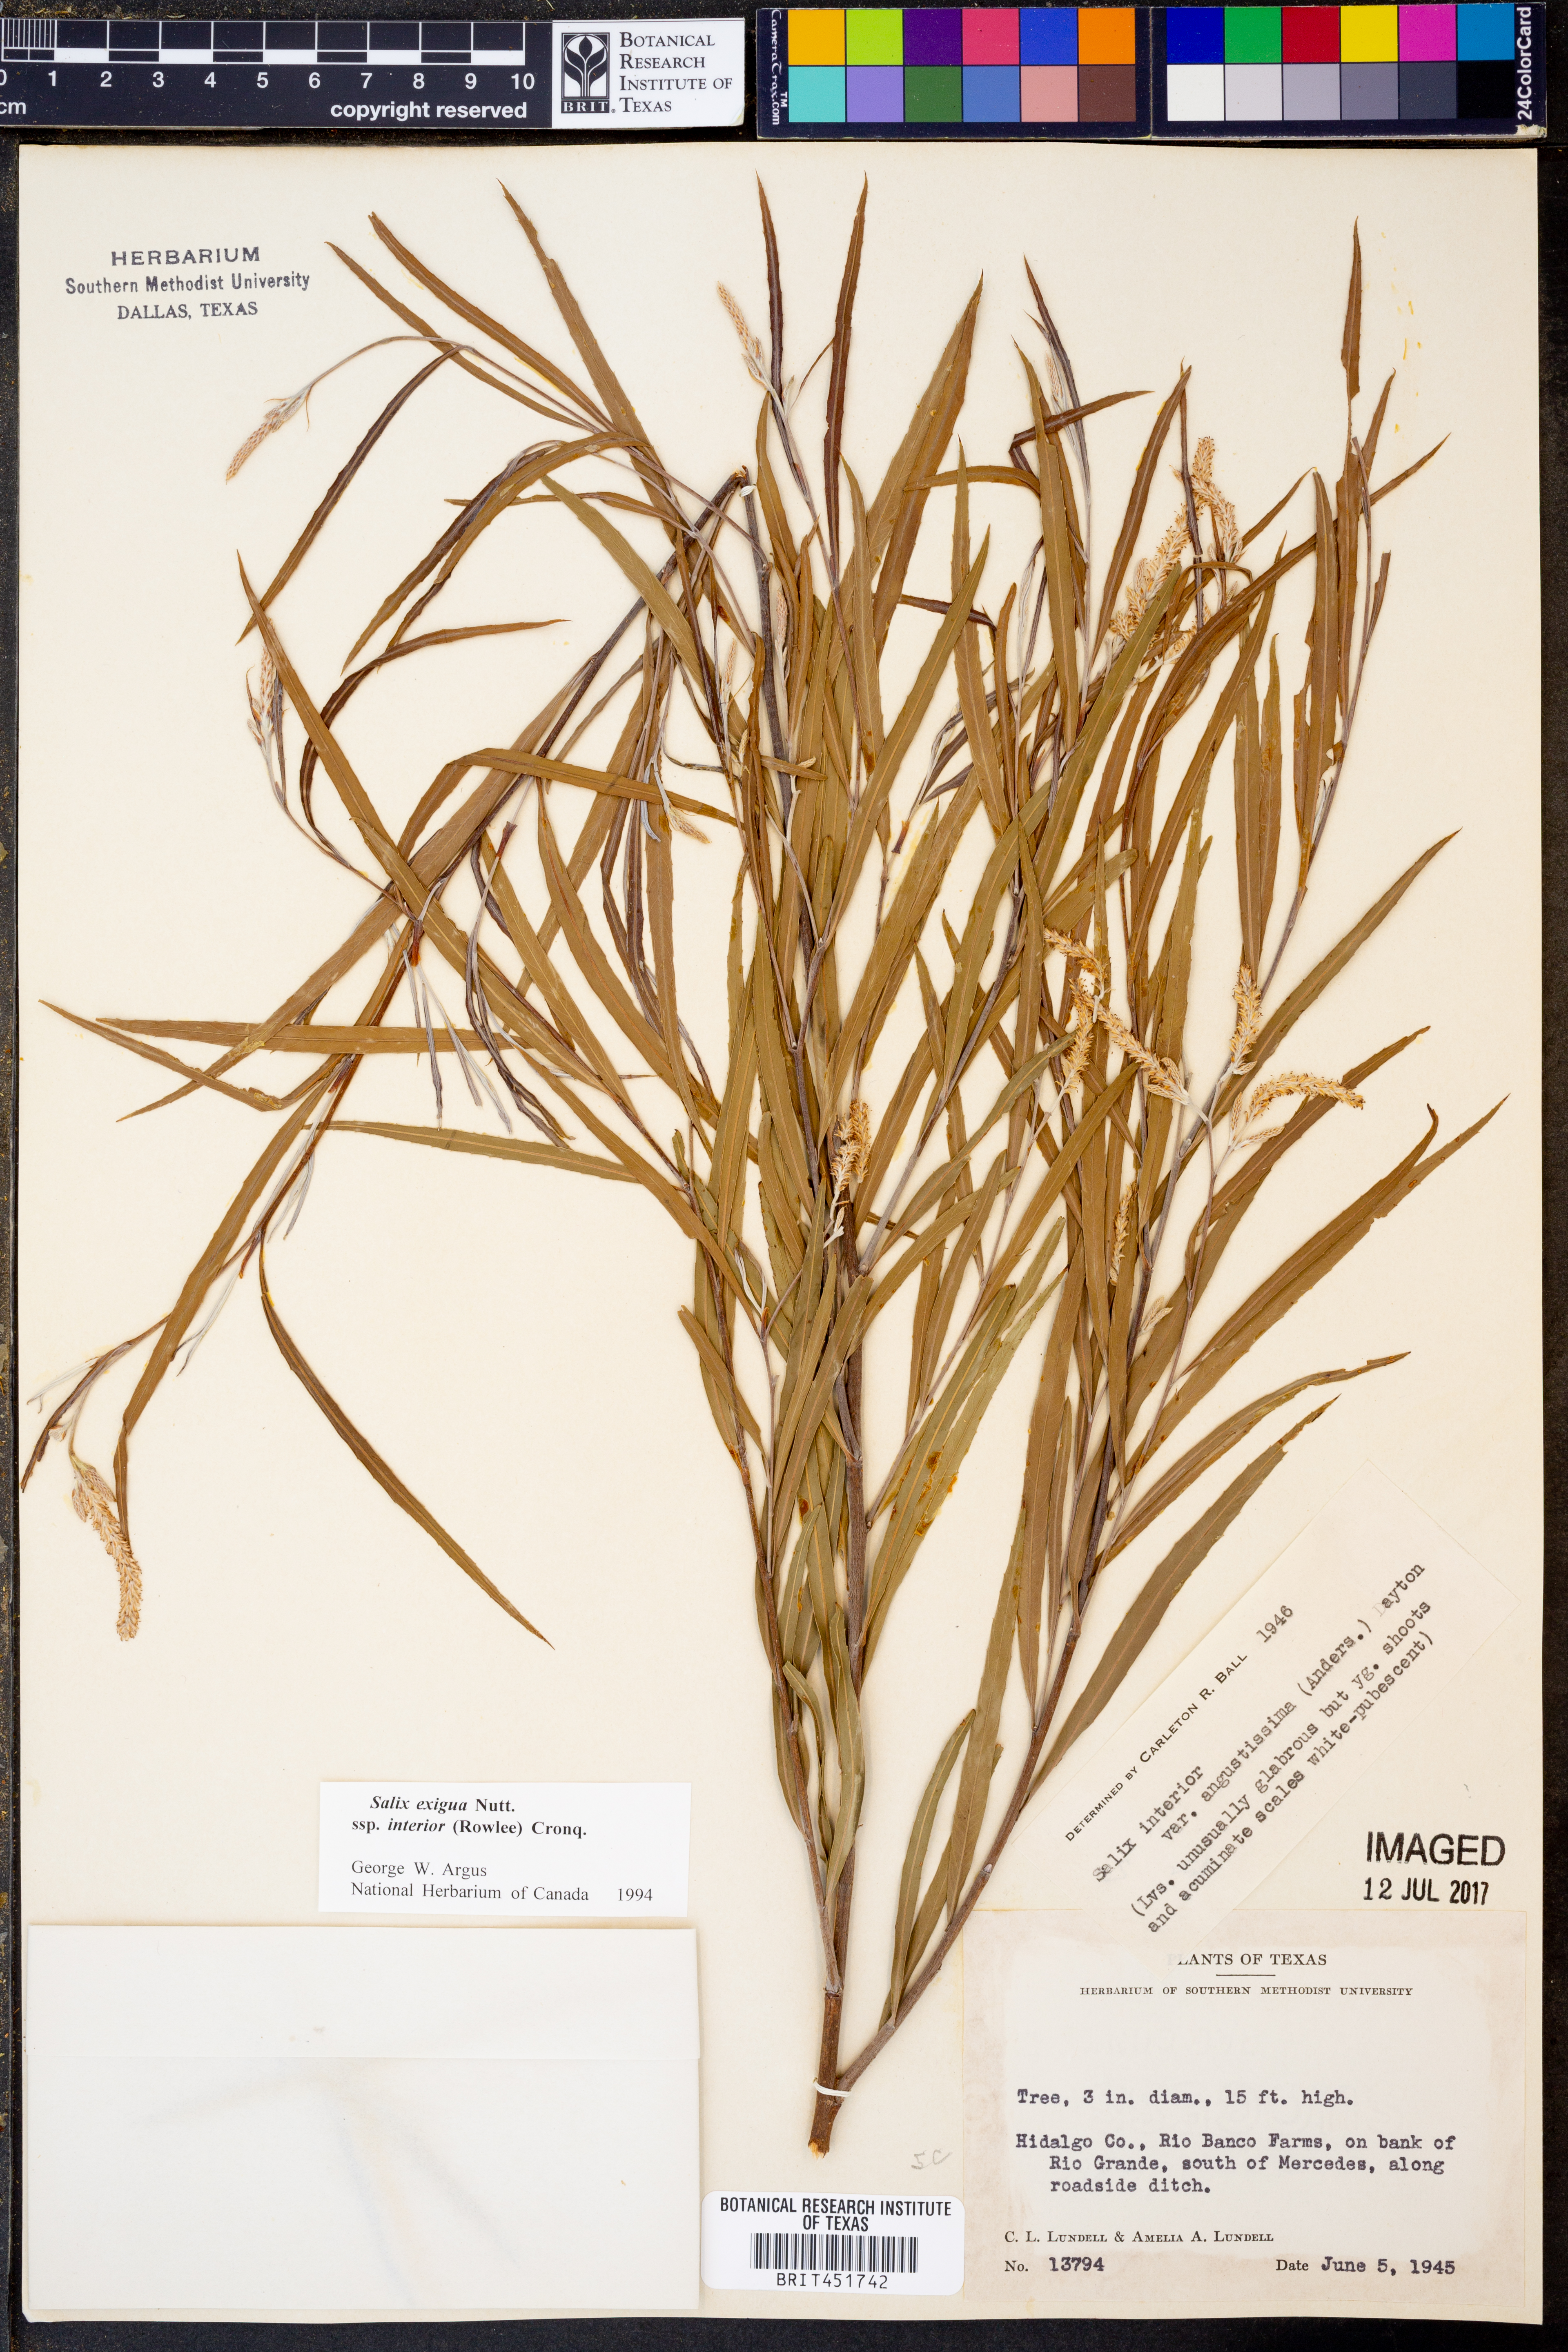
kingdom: Plantae
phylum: Tracheophyta
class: Magnoliopsida
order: Malpighiales
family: Salicaceae
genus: Salix
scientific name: Salix exigua
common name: Coyote willow
